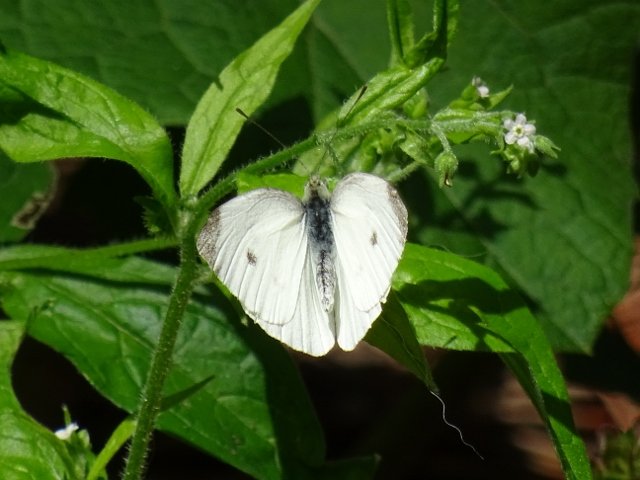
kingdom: Animalia
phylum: Arthropoda
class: Insecta
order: Lepidoptera
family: Pieridae
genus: Pieris
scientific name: Pieris rapae
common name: Cabbage White
